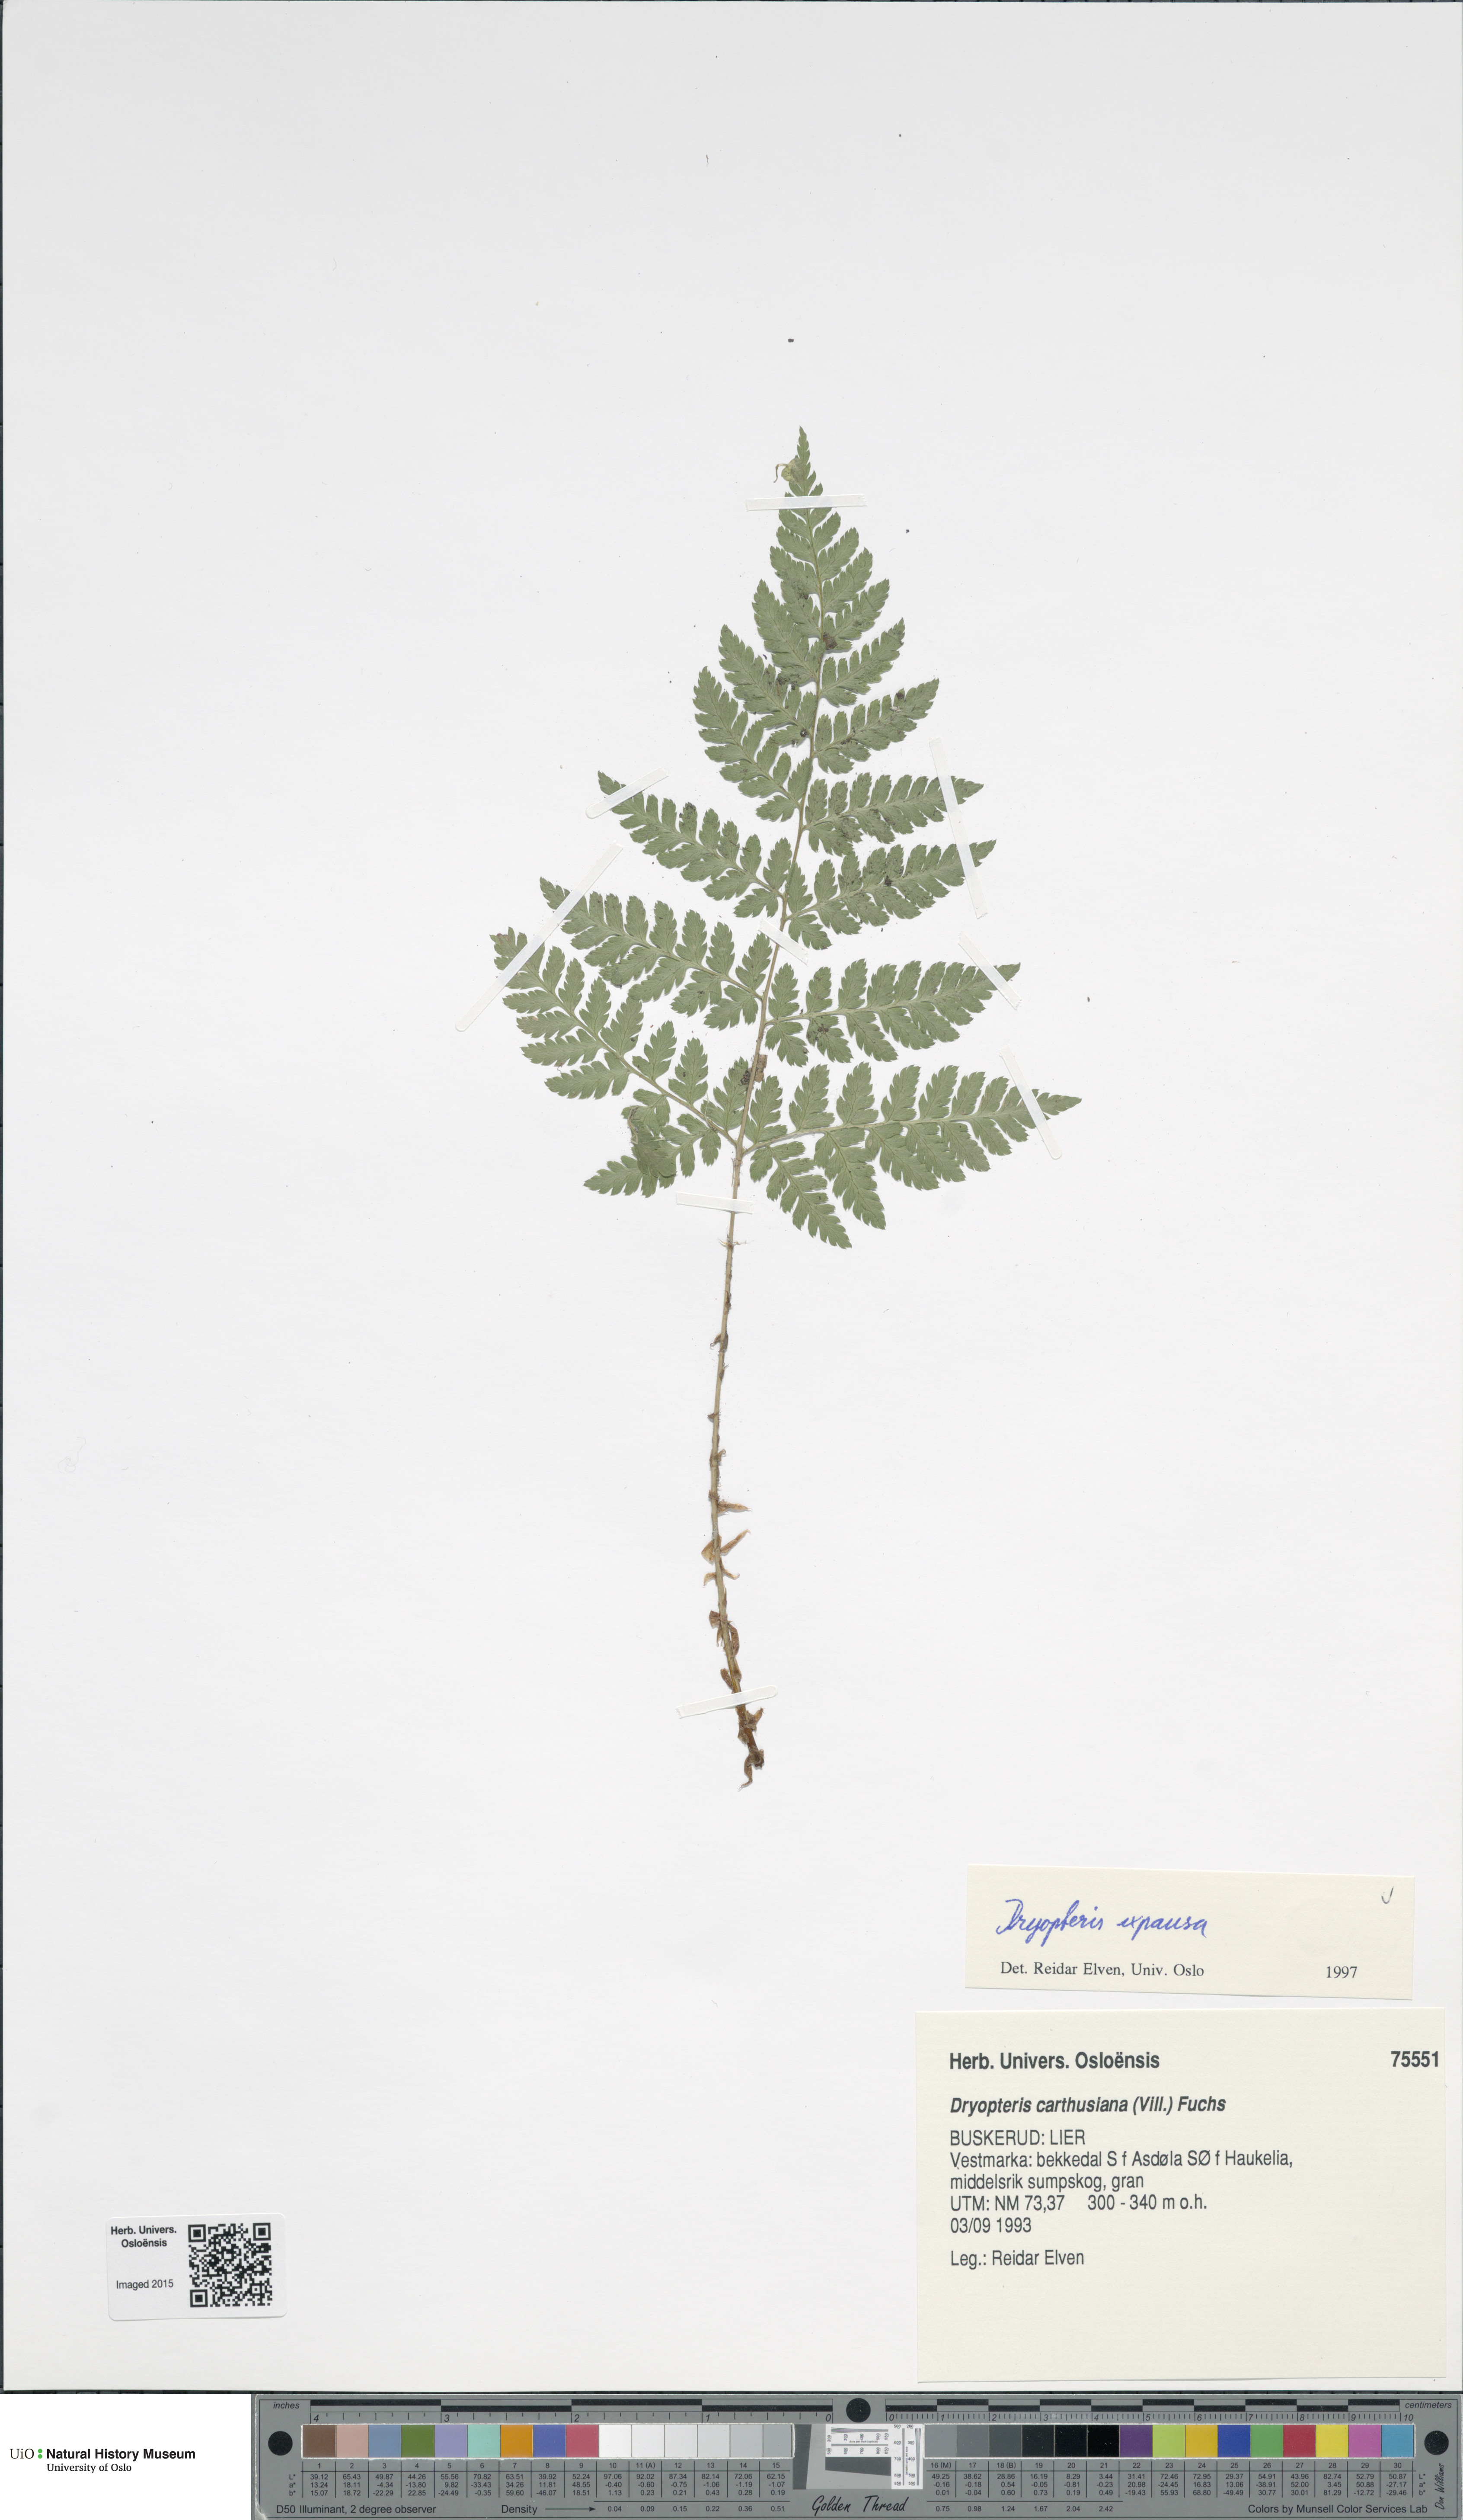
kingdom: Plantae
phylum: Tracheophyta
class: Polypodiopsida
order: Polypodiales
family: Dryopteridaceae
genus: Dryopteris
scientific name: Dryopteris expansa
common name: Northern buckler fern
